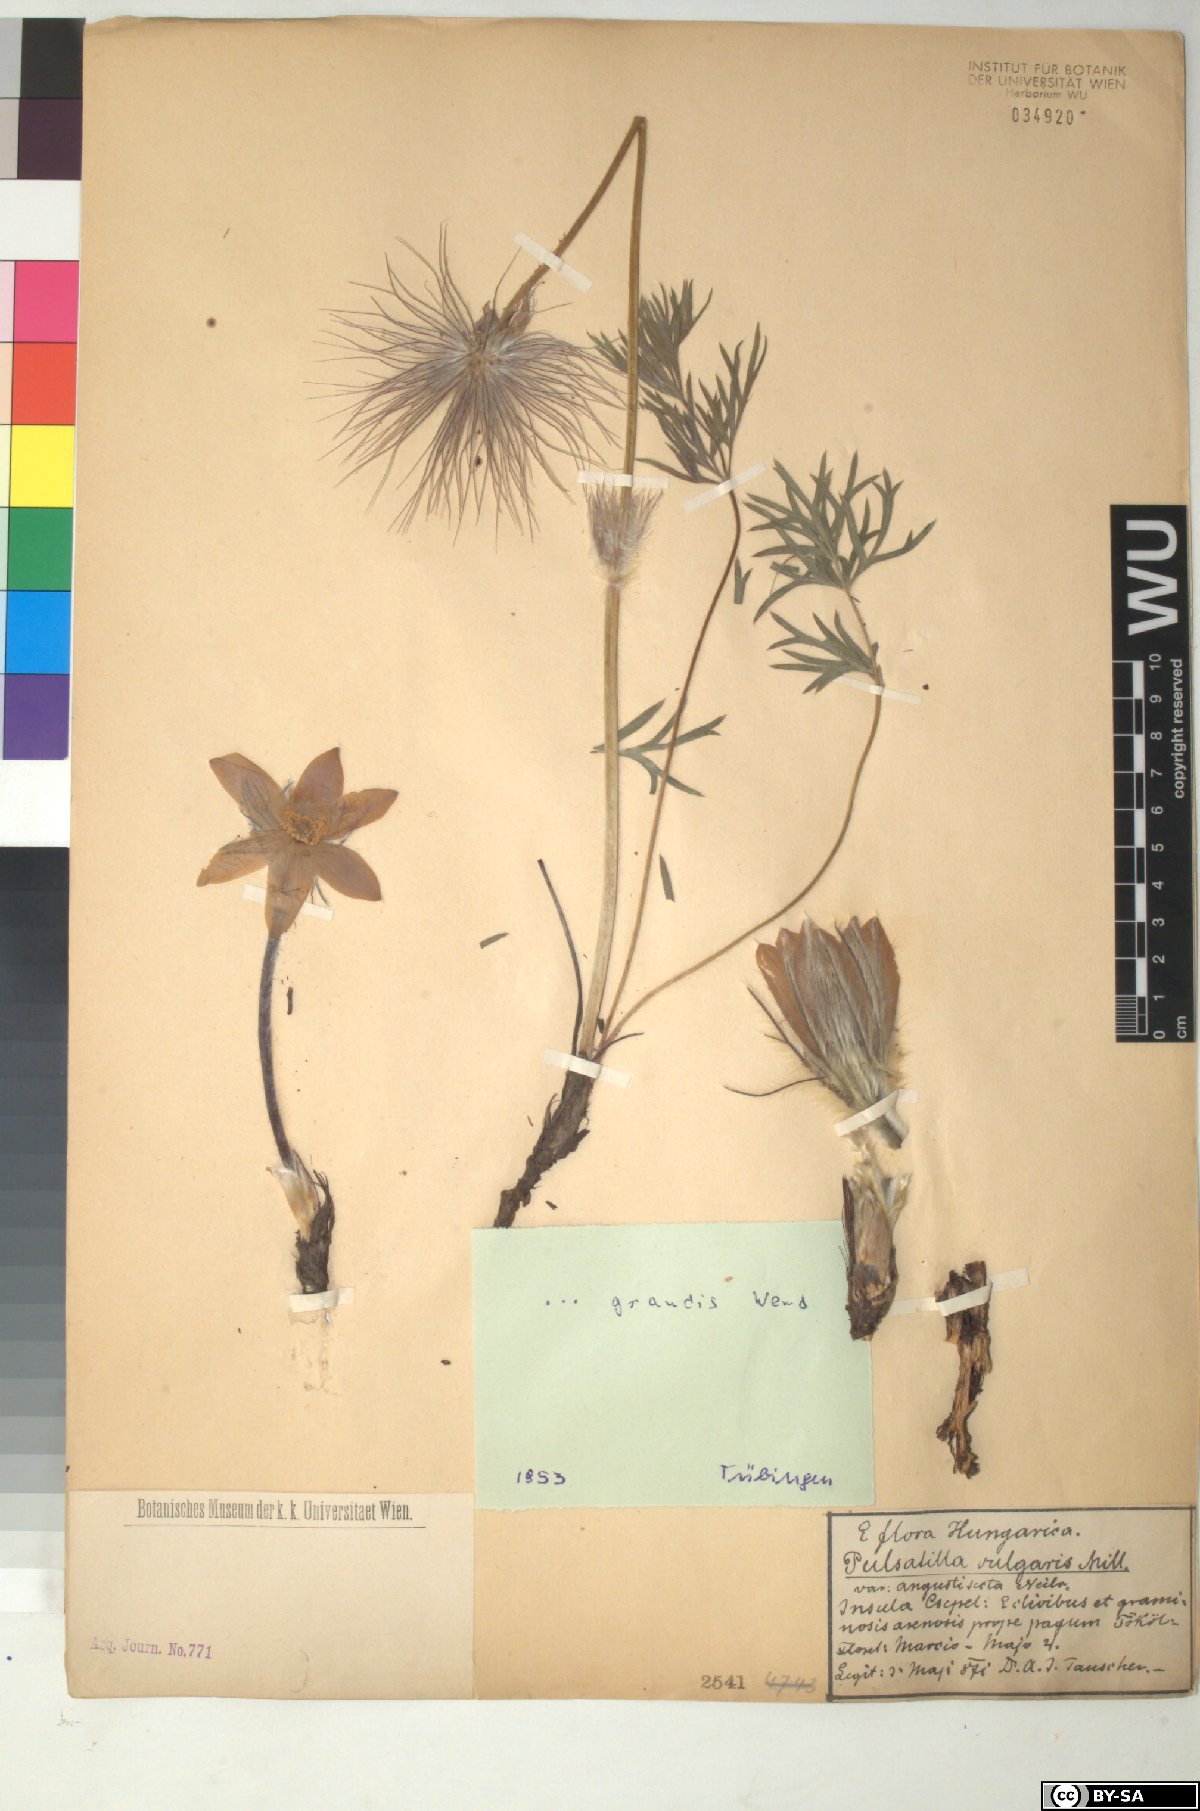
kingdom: Plantae
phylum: Tracheophyta
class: Magnoliopsida
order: Ranunculales
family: Ranunculaceae
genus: Pulsatilla
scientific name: Pulsatilla grandis
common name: Greater pasque flower
